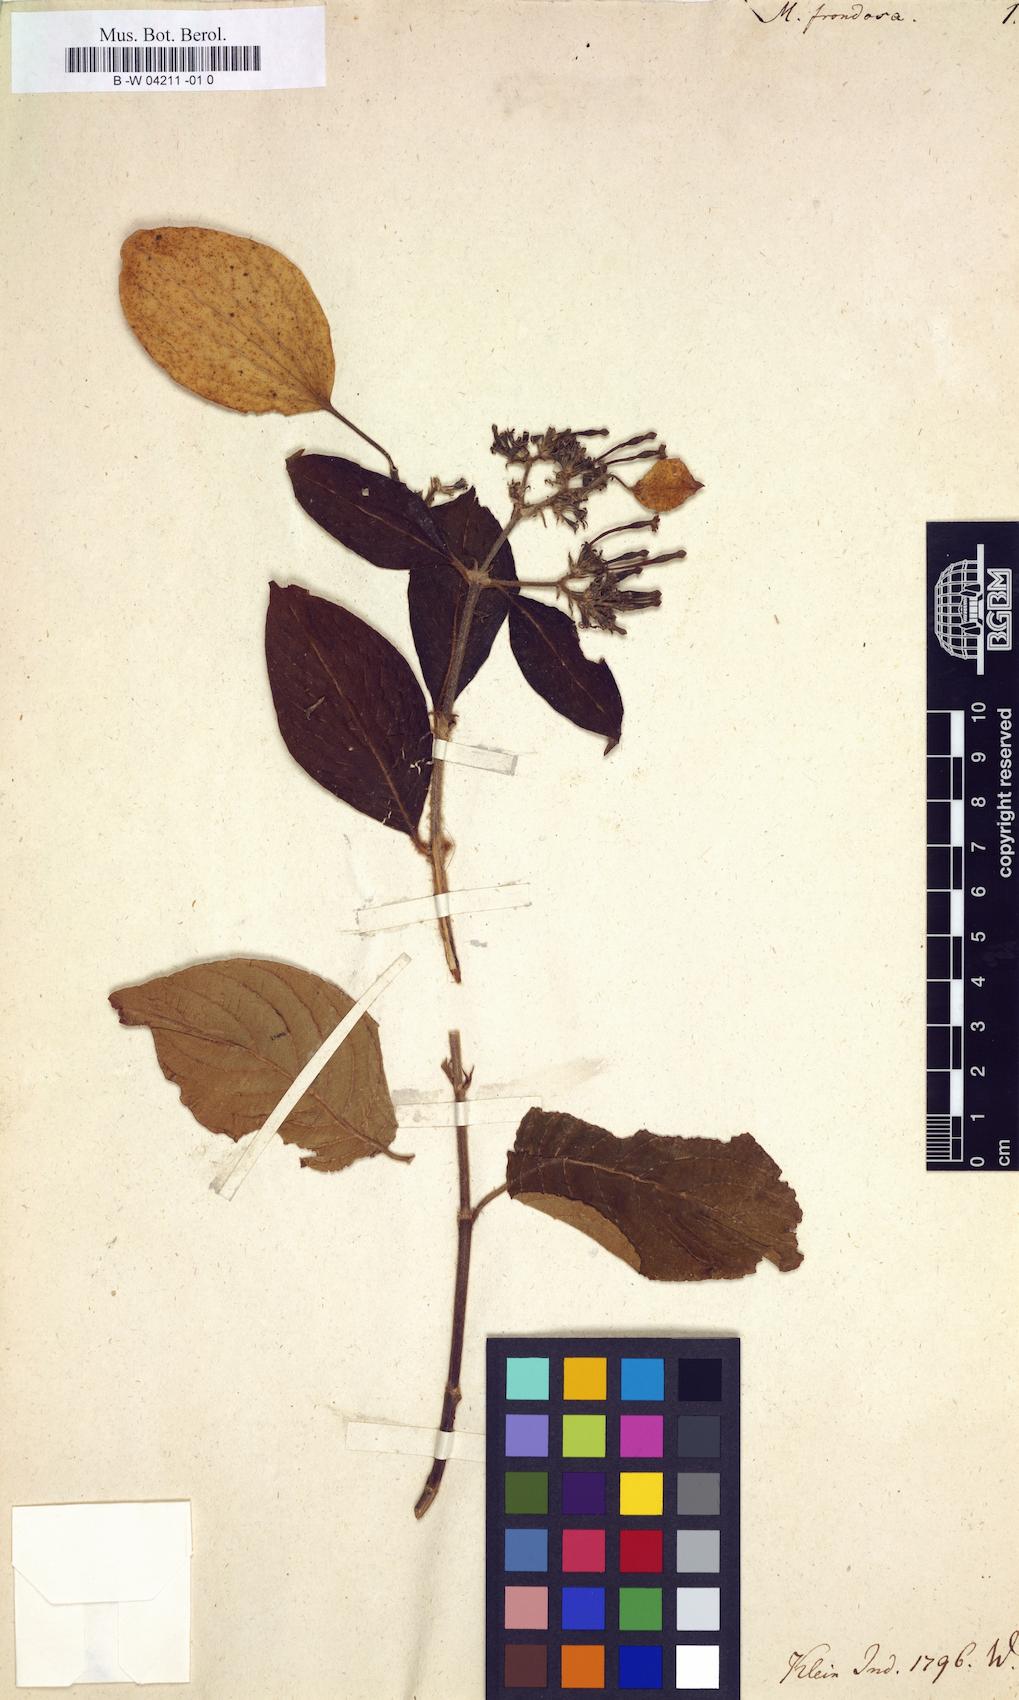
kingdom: Plantae
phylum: Tracheophyta
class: Magnoliopsida
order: Gentianales
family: Rubiaceae
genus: Mussaenda
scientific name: Mussaenda frondosa
